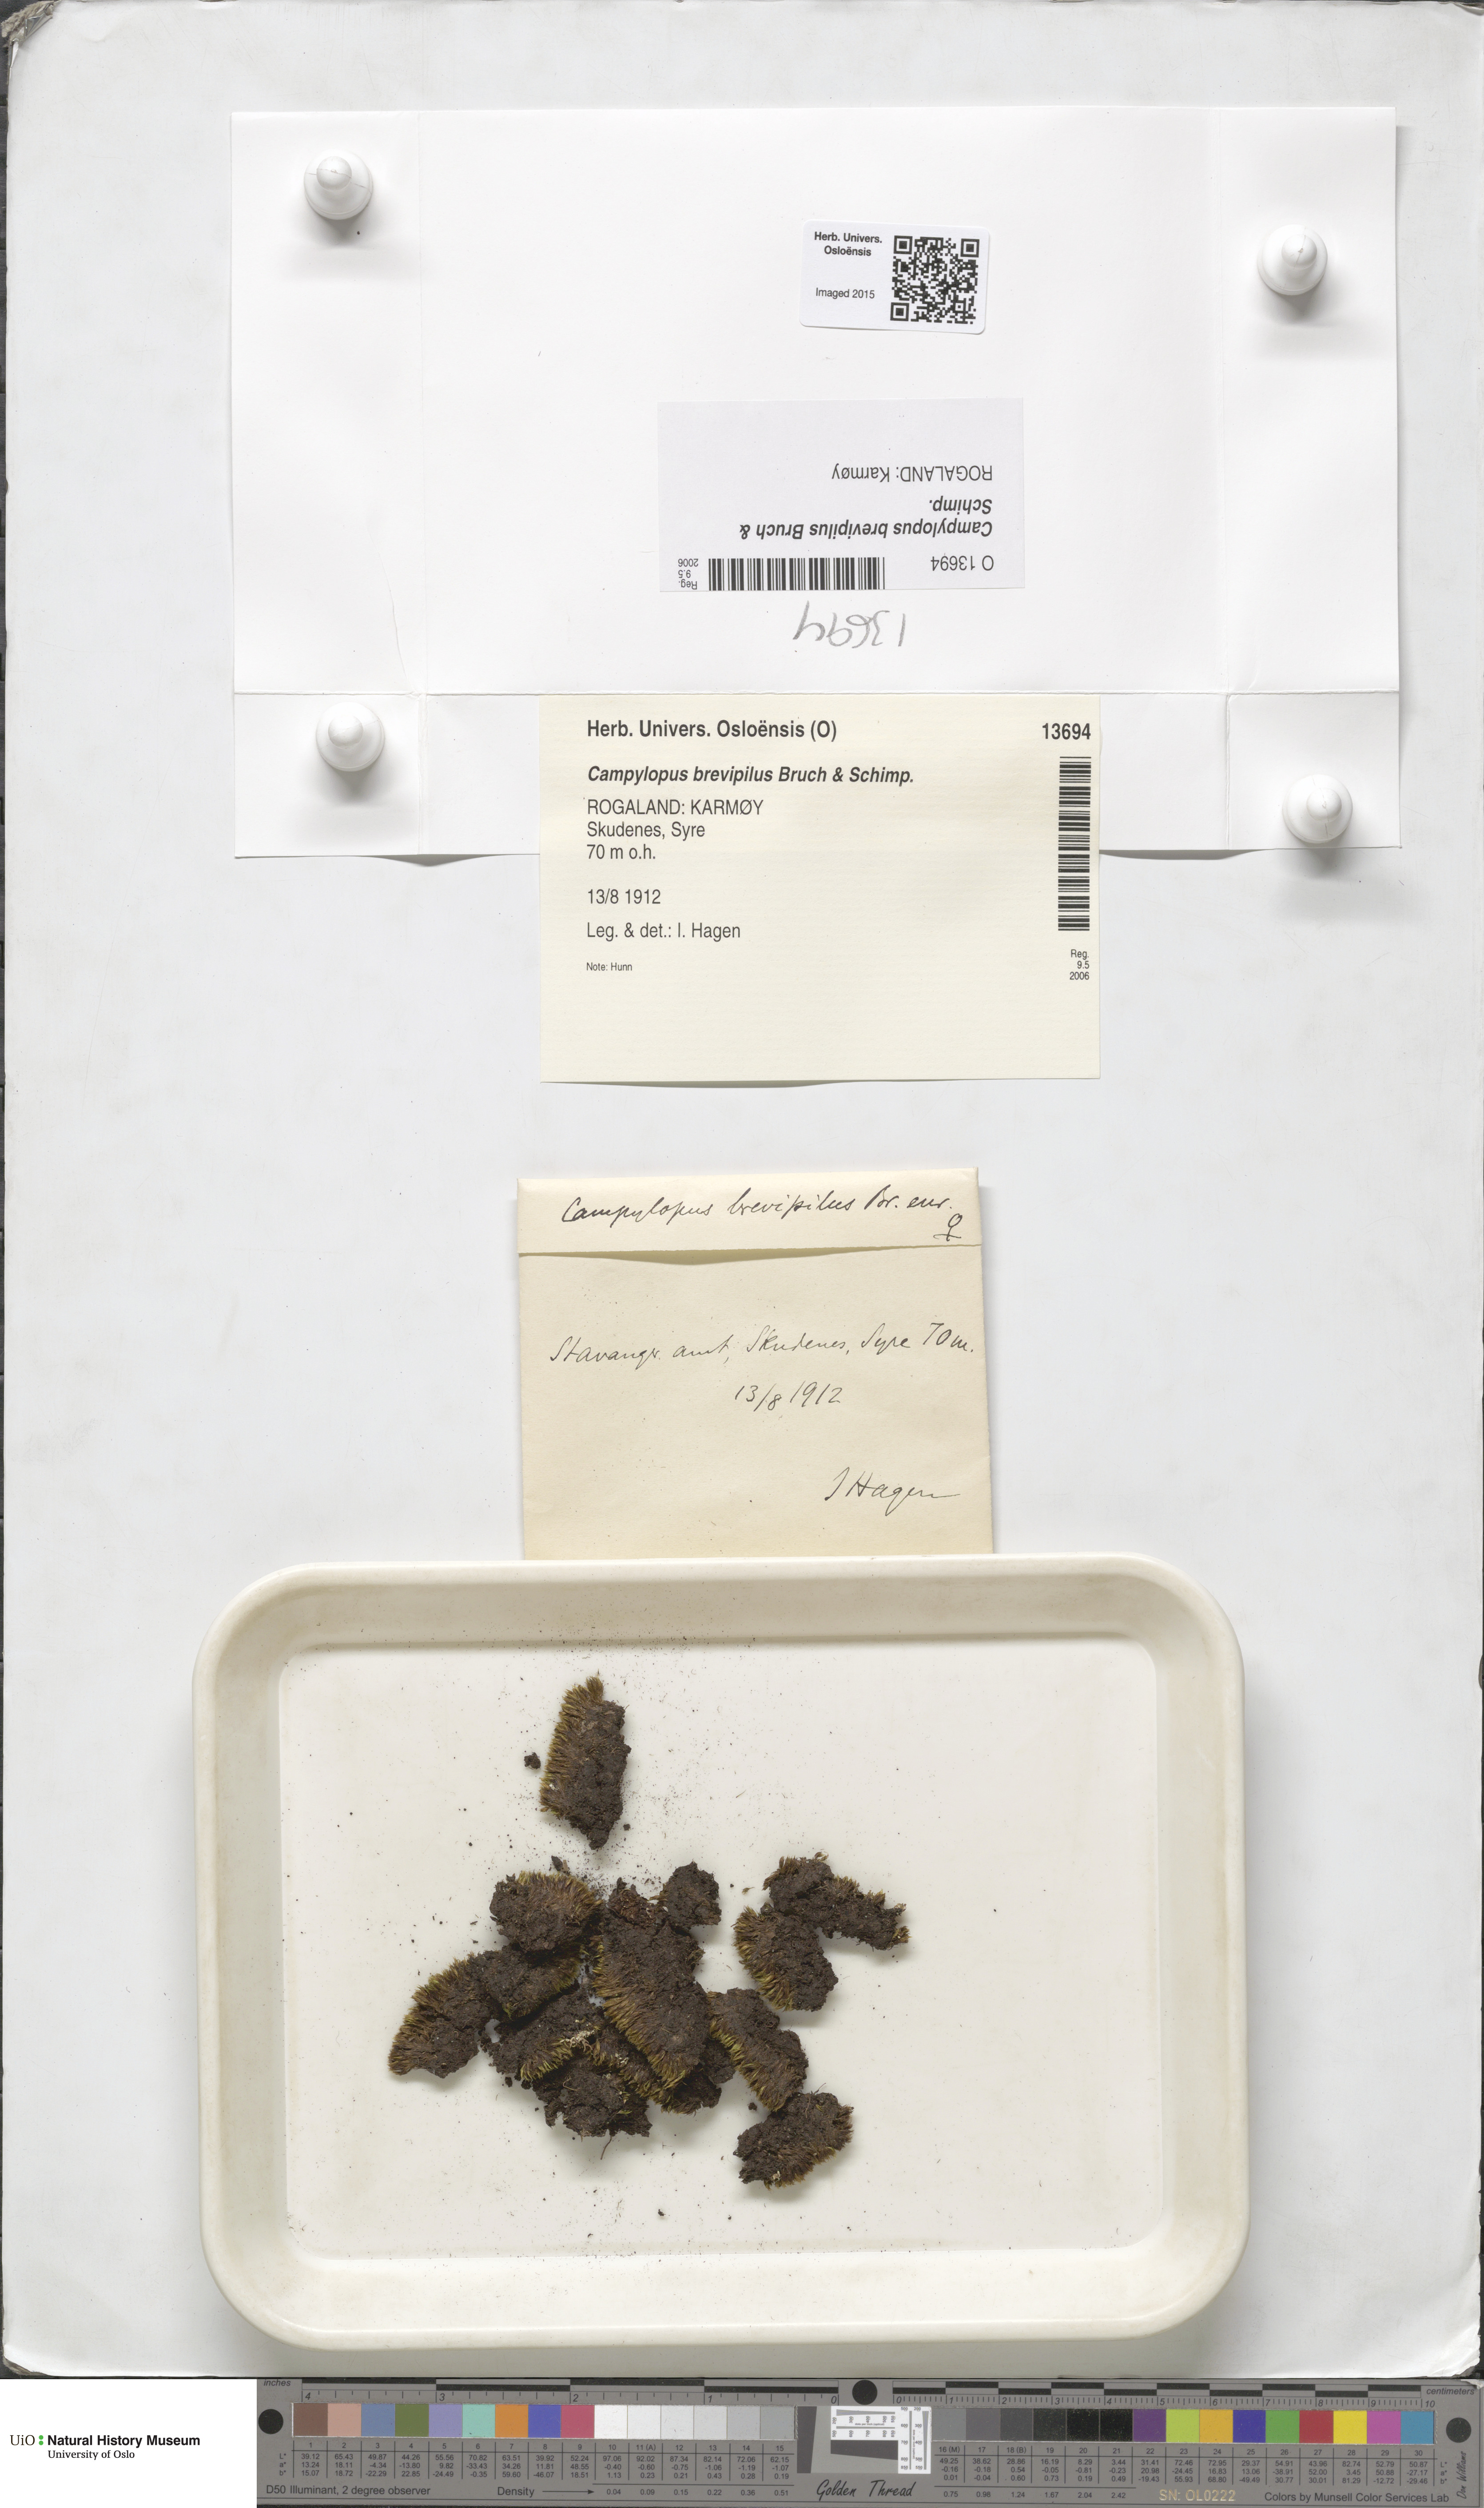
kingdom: Plantae
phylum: Bryophyta
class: Bryopsida
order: Dicranales
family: Leucobryaceae
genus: Campylopus
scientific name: Campylopus brevipilus
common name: Compact swan-neck moss
